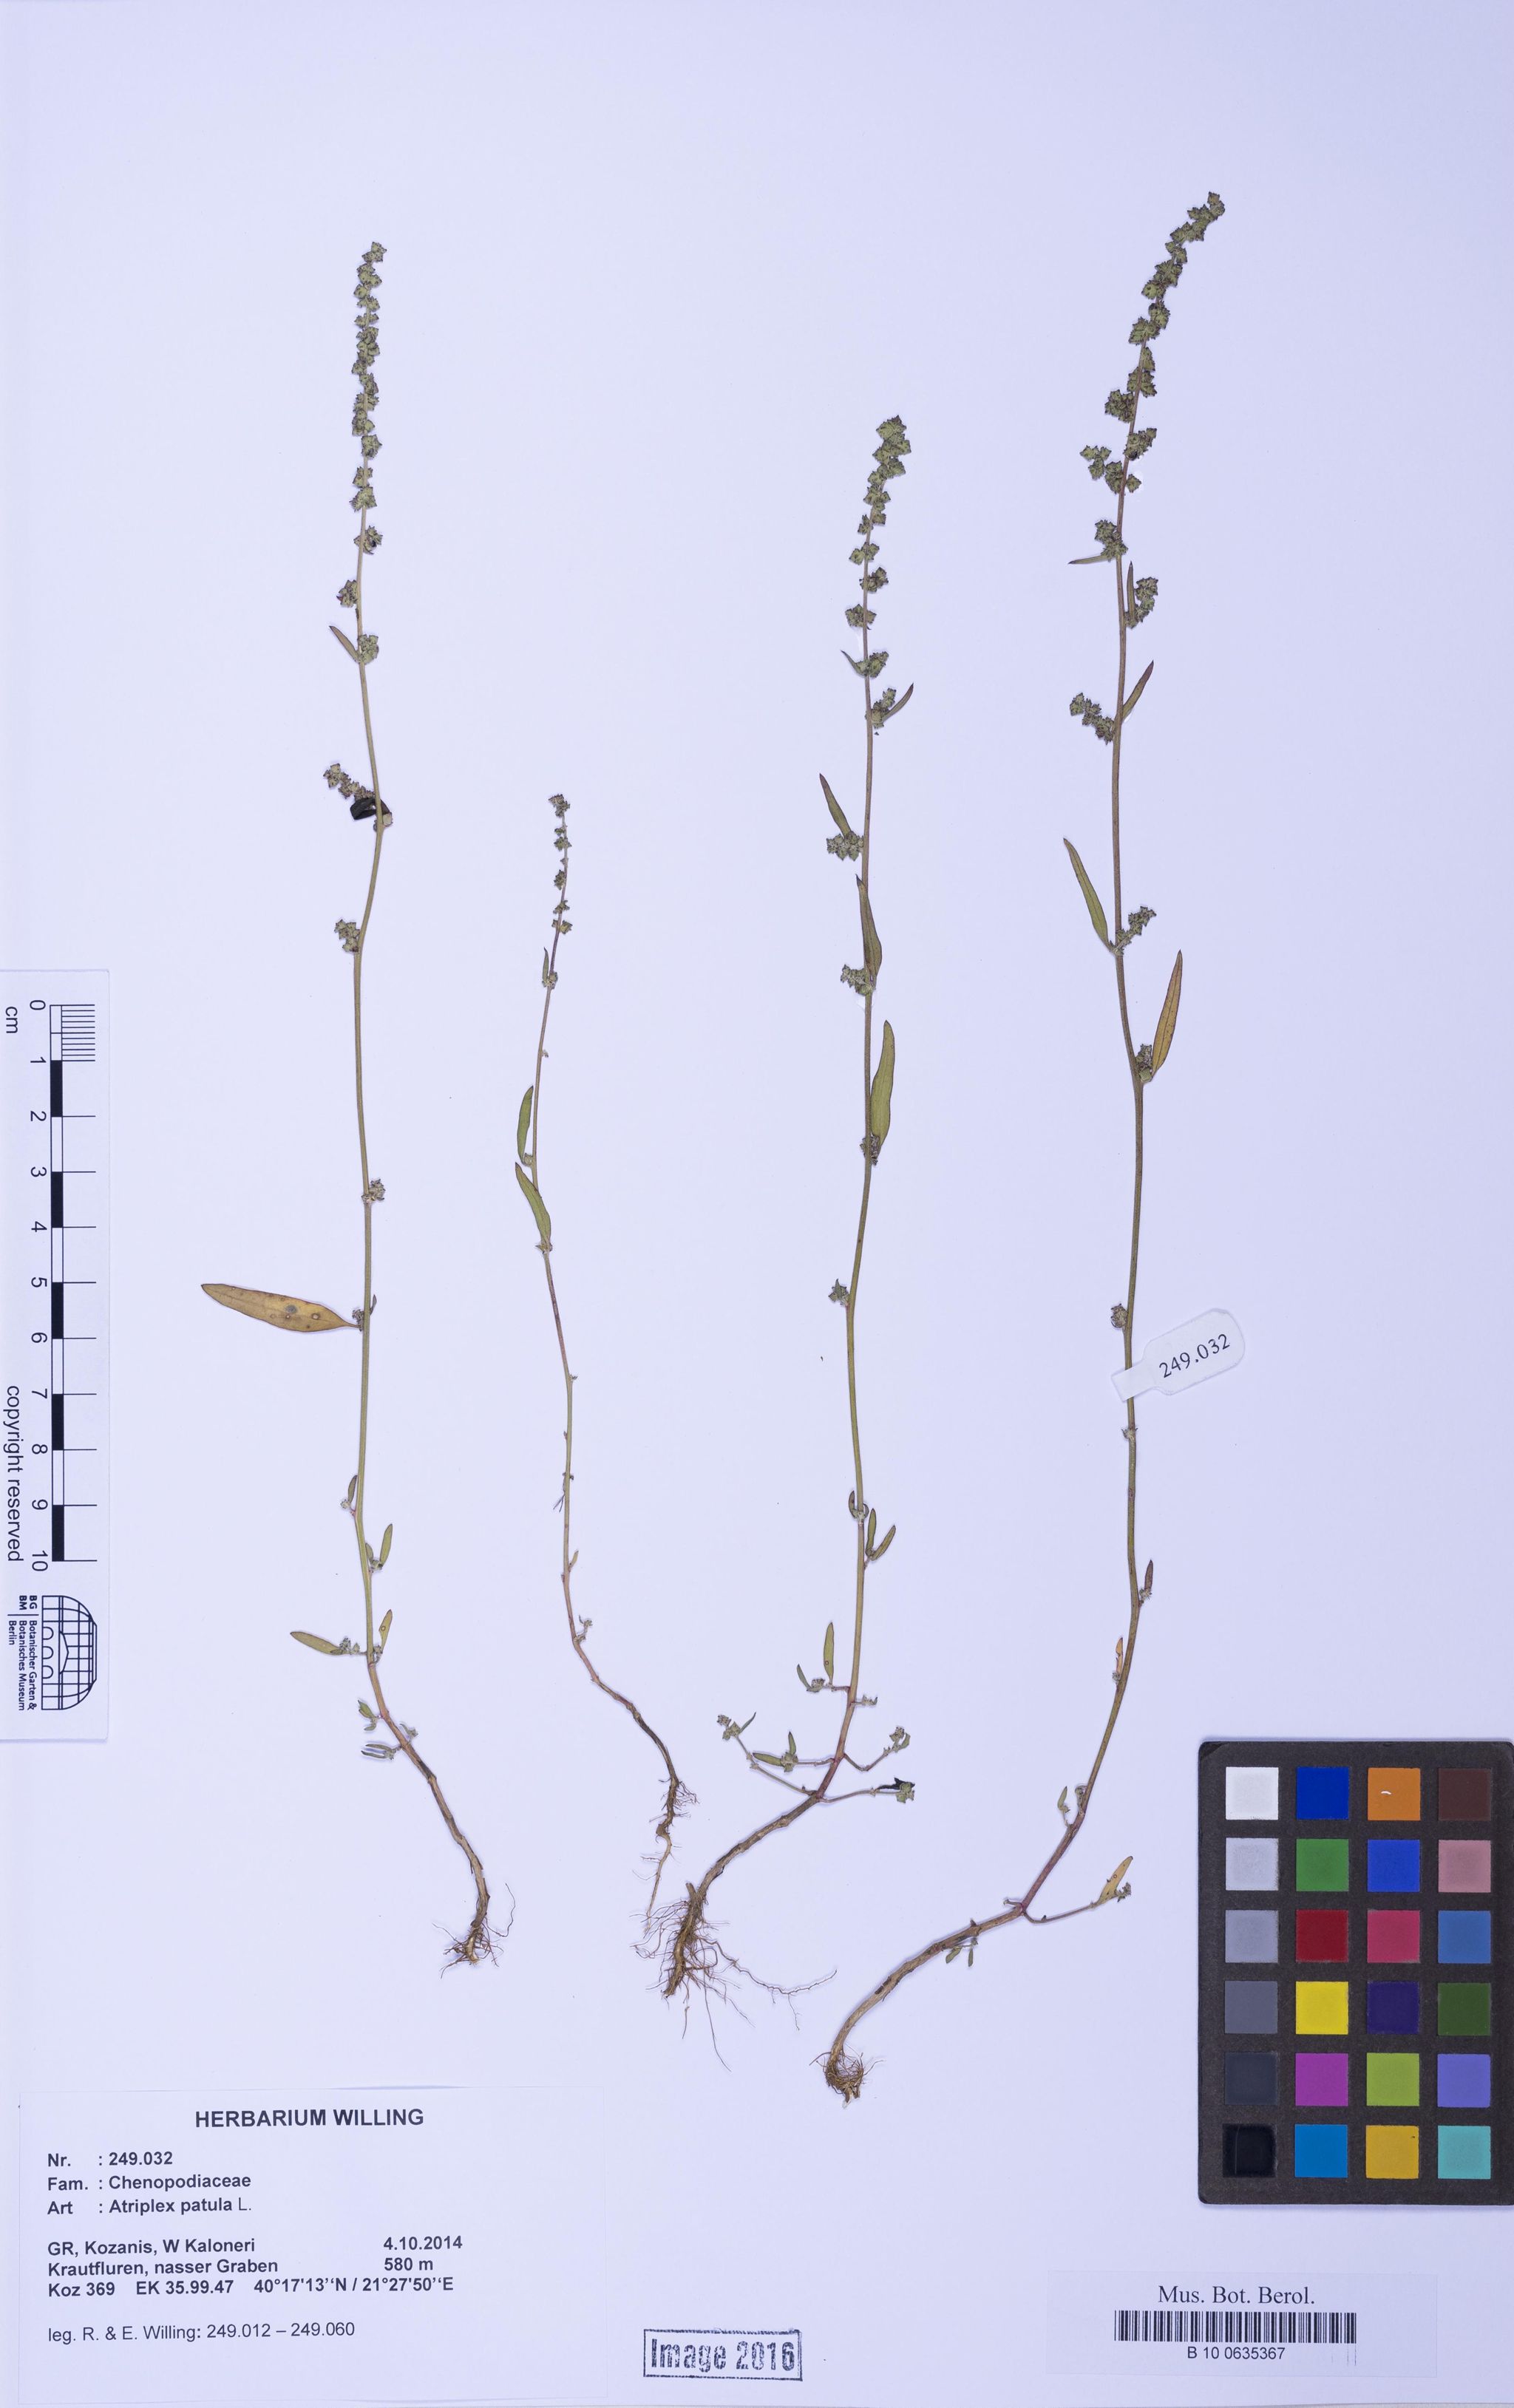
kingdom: Plantae
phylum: Tracheophyta
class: Magnoliopsida
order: Caryophyllales
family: Amaranthaceae
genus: Atriplex
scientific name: Atriplex patula
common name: Common orache
